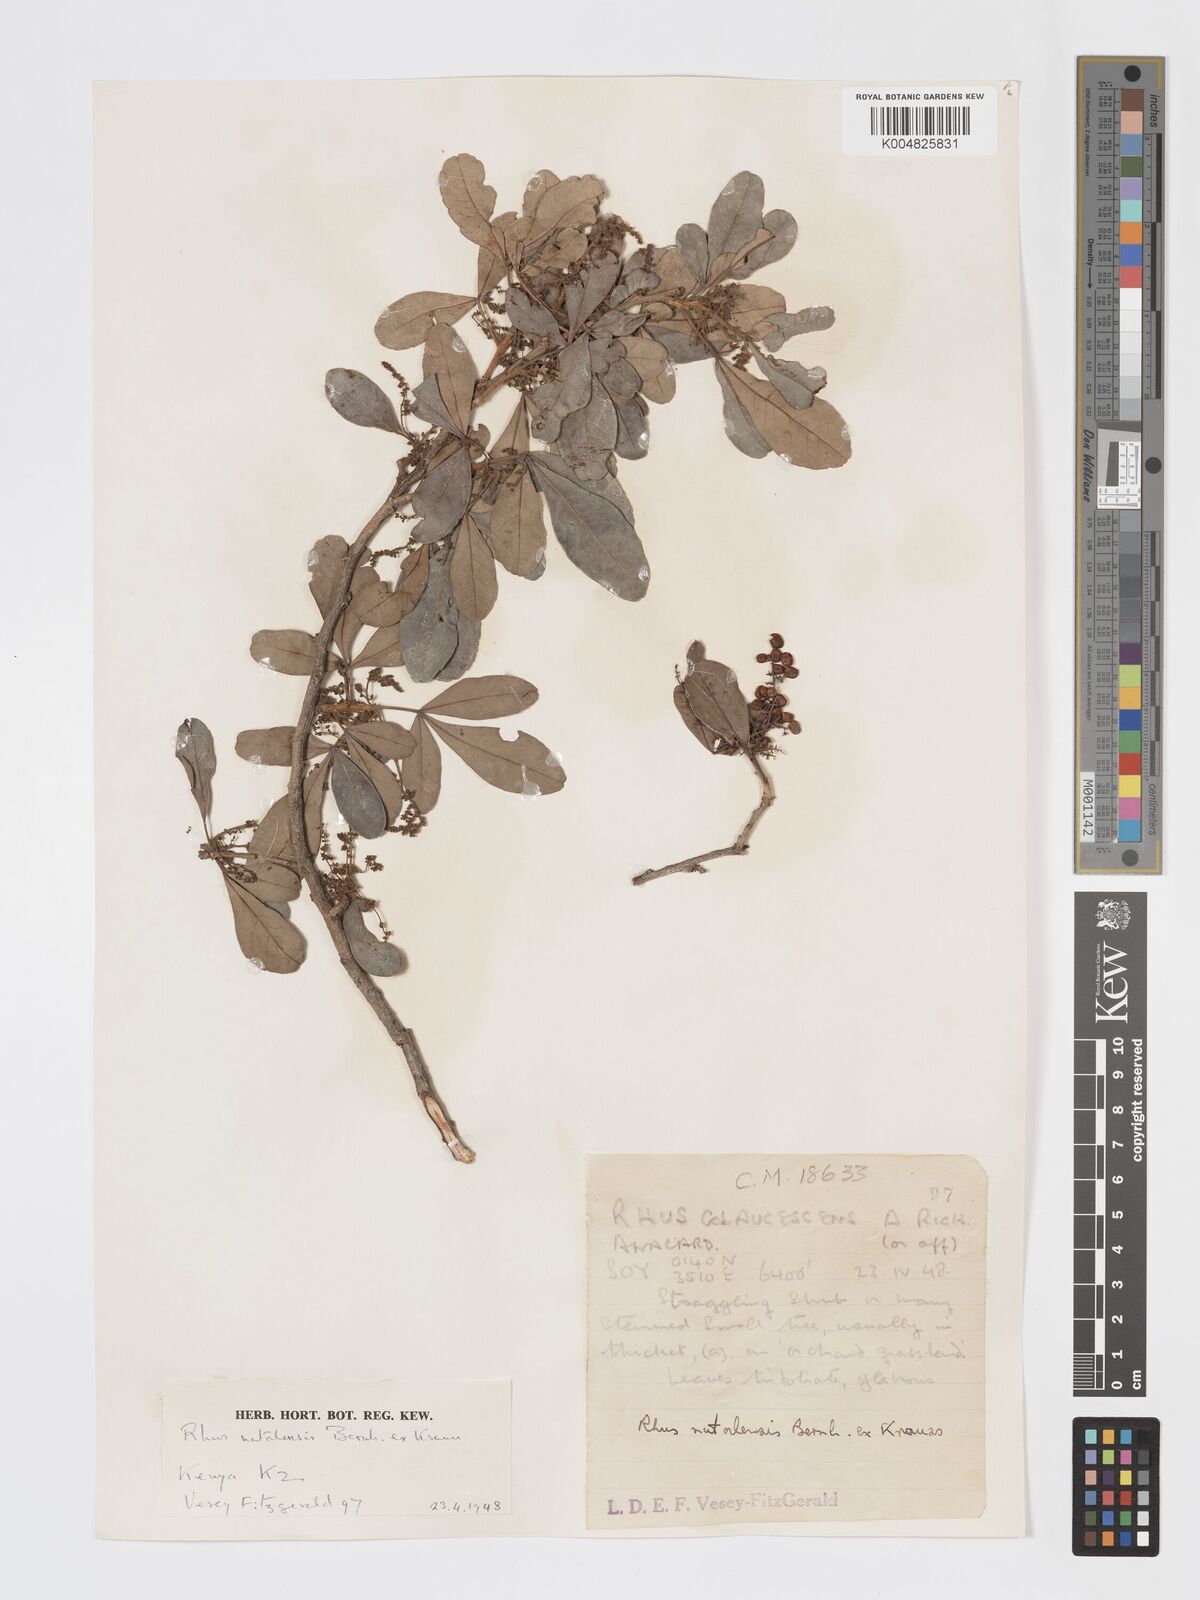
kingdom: Plantae
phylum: Tracheophyta
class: Magnoliopsida
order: Sapindales
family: Anacardiaceae
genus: Searsia
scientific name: Searsia natalensis
